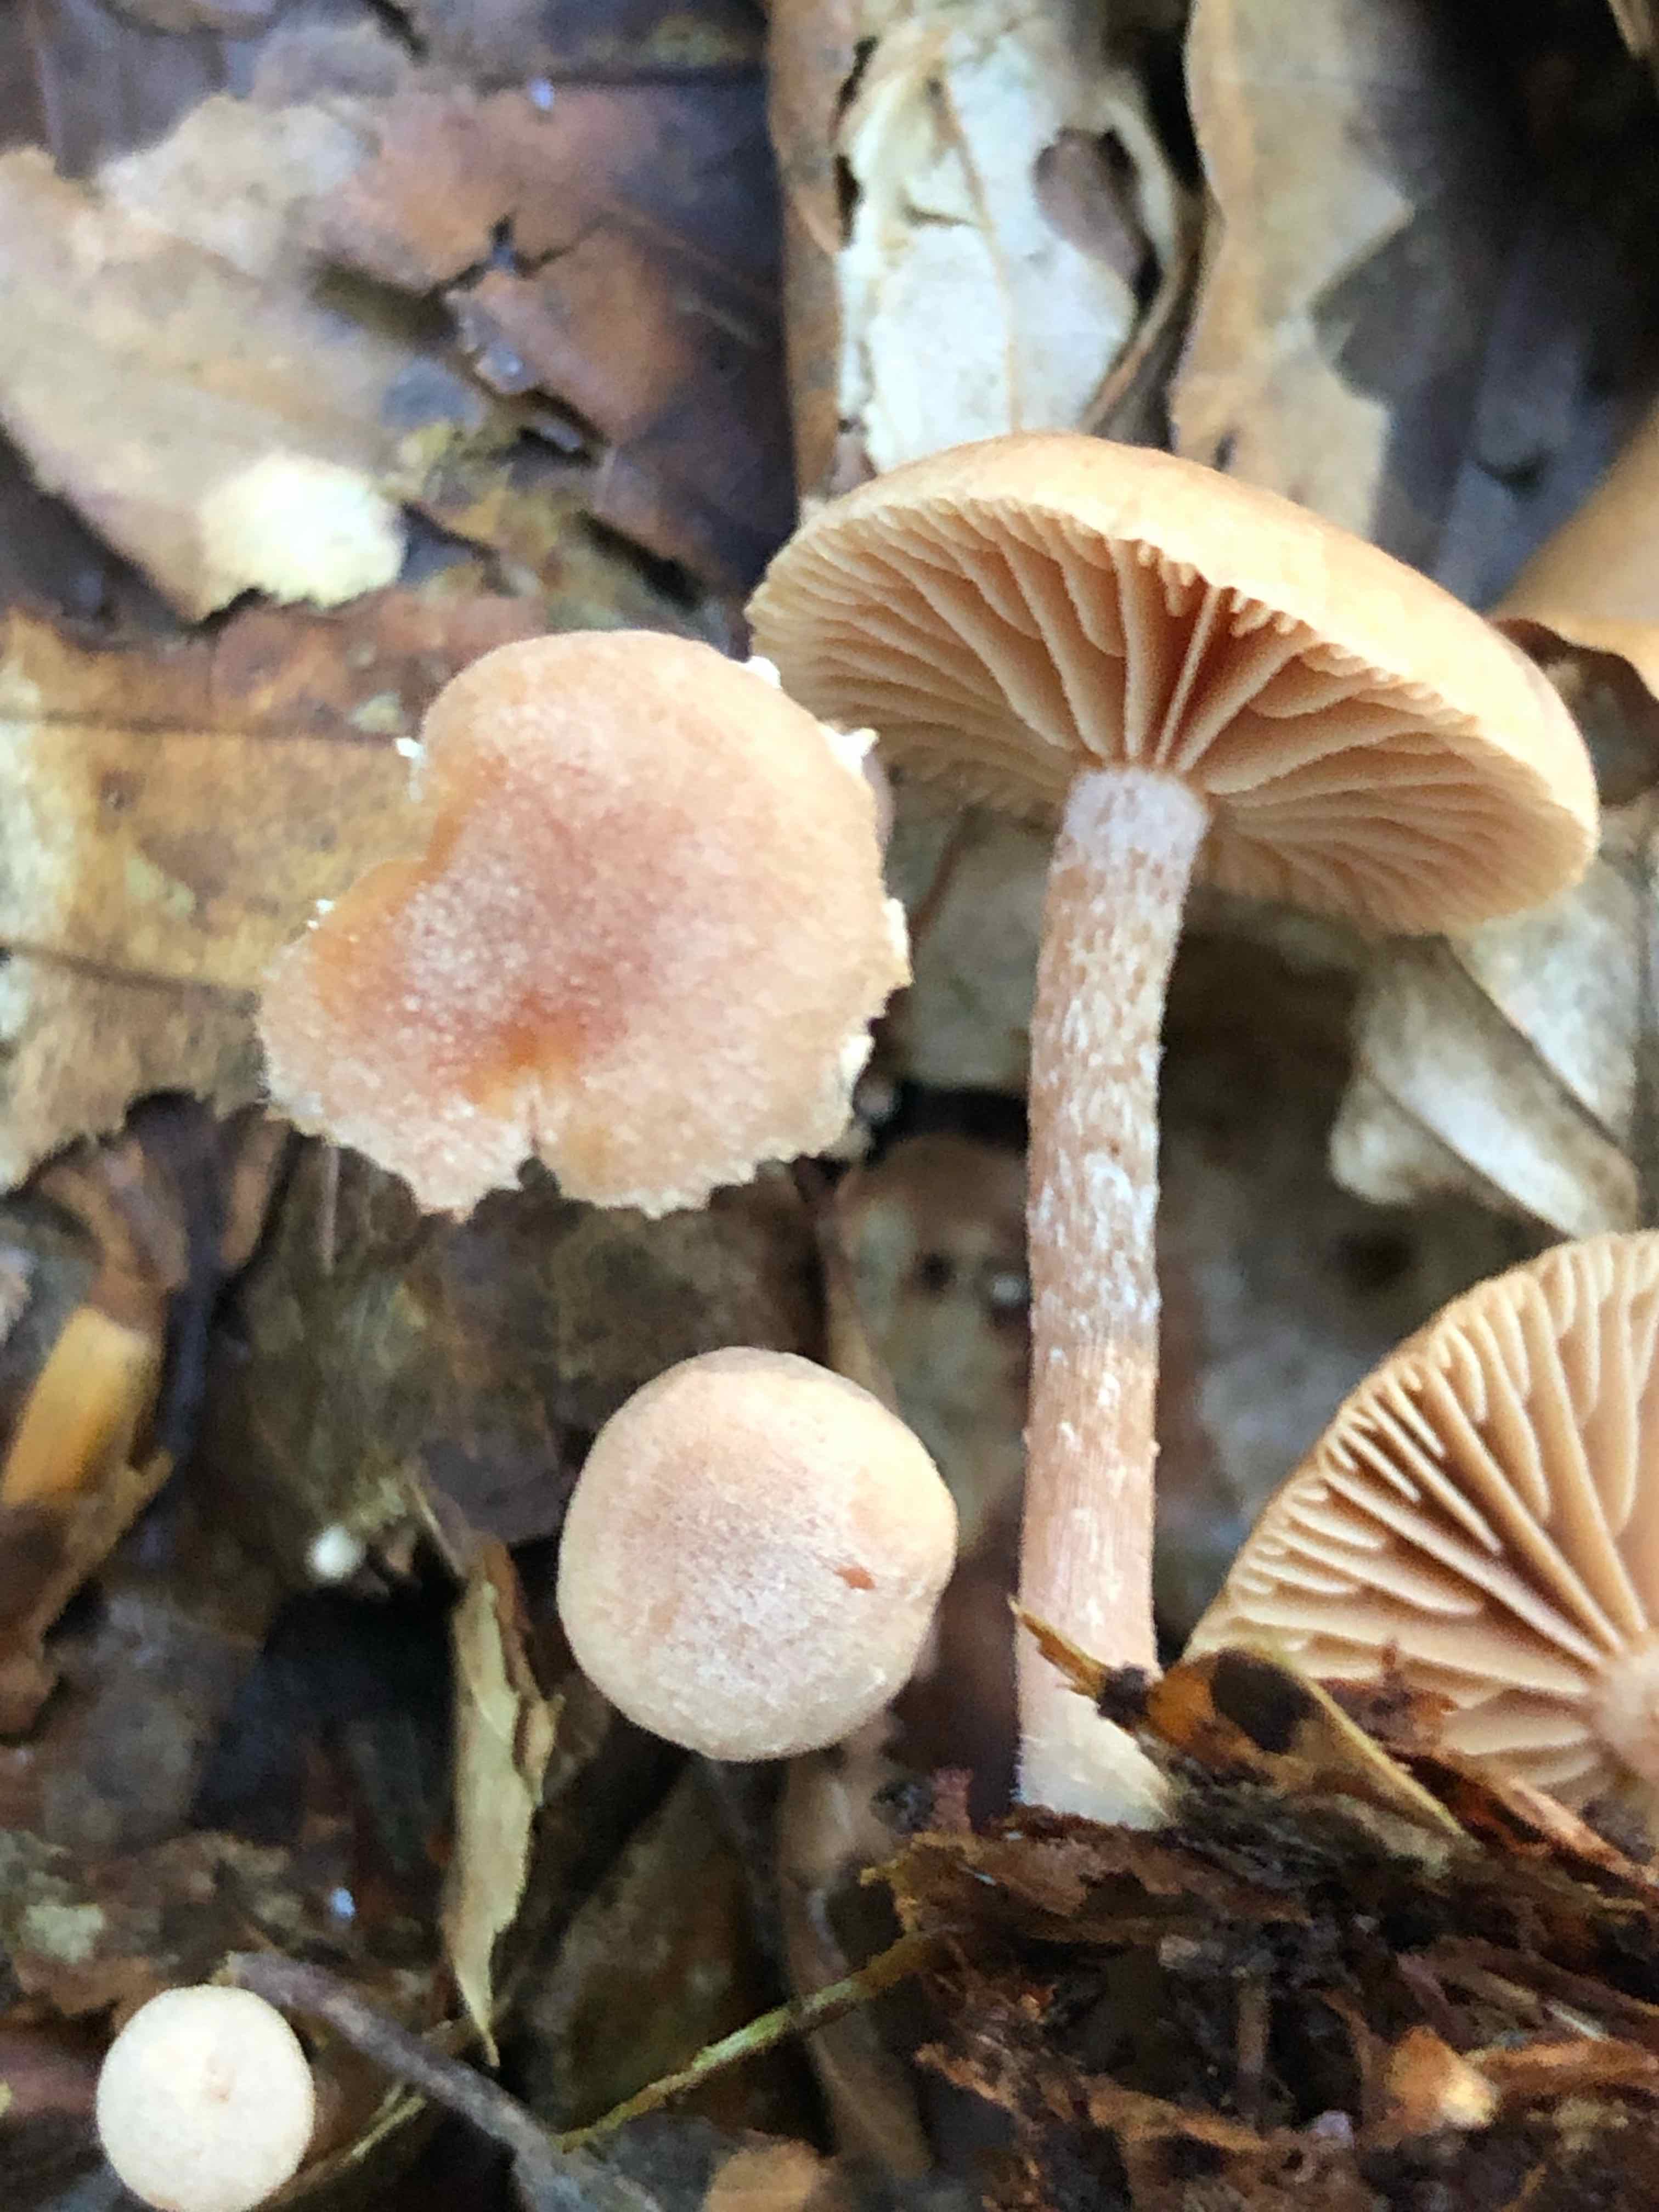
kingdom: Fungi
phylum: Basidiomycota
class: Agaricomycetes
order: Agaricales
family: Tubariaceae
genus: Tubaria
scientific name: Tubaria conspersa
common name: bleg fnughat
